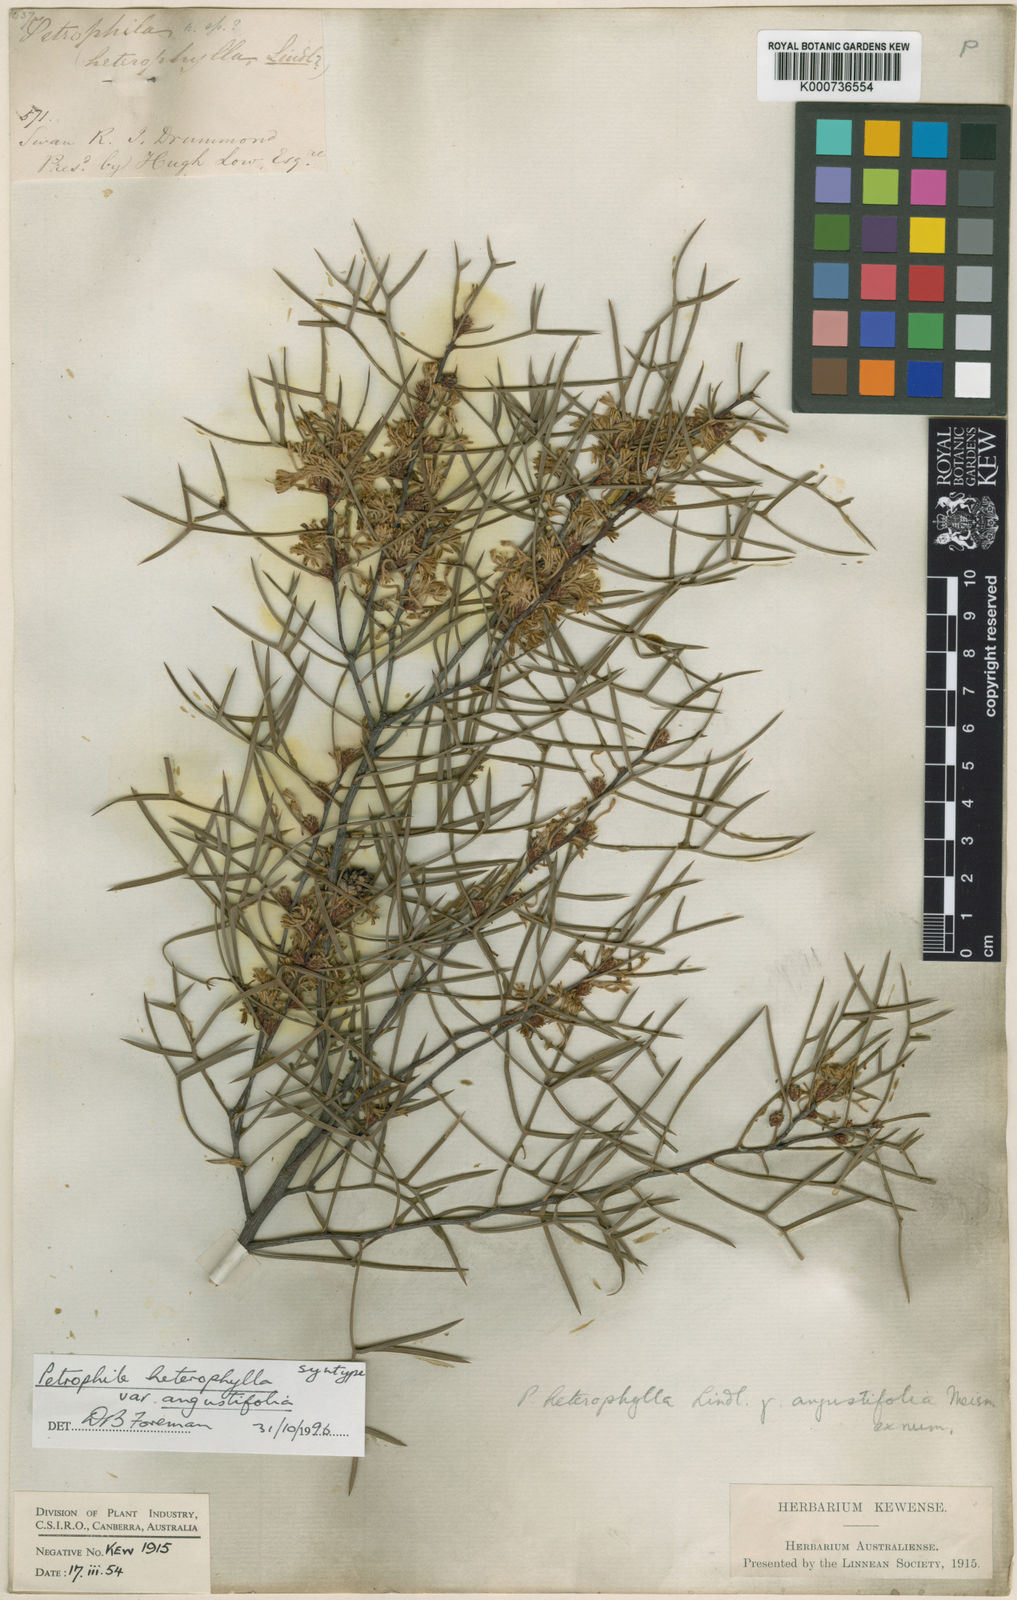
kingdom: Plantae
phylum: Tracheophyta
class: Magnoliopsida
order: Proteales
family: Proteaceae
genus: Petrophile
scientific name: Petrophile heterophylla
